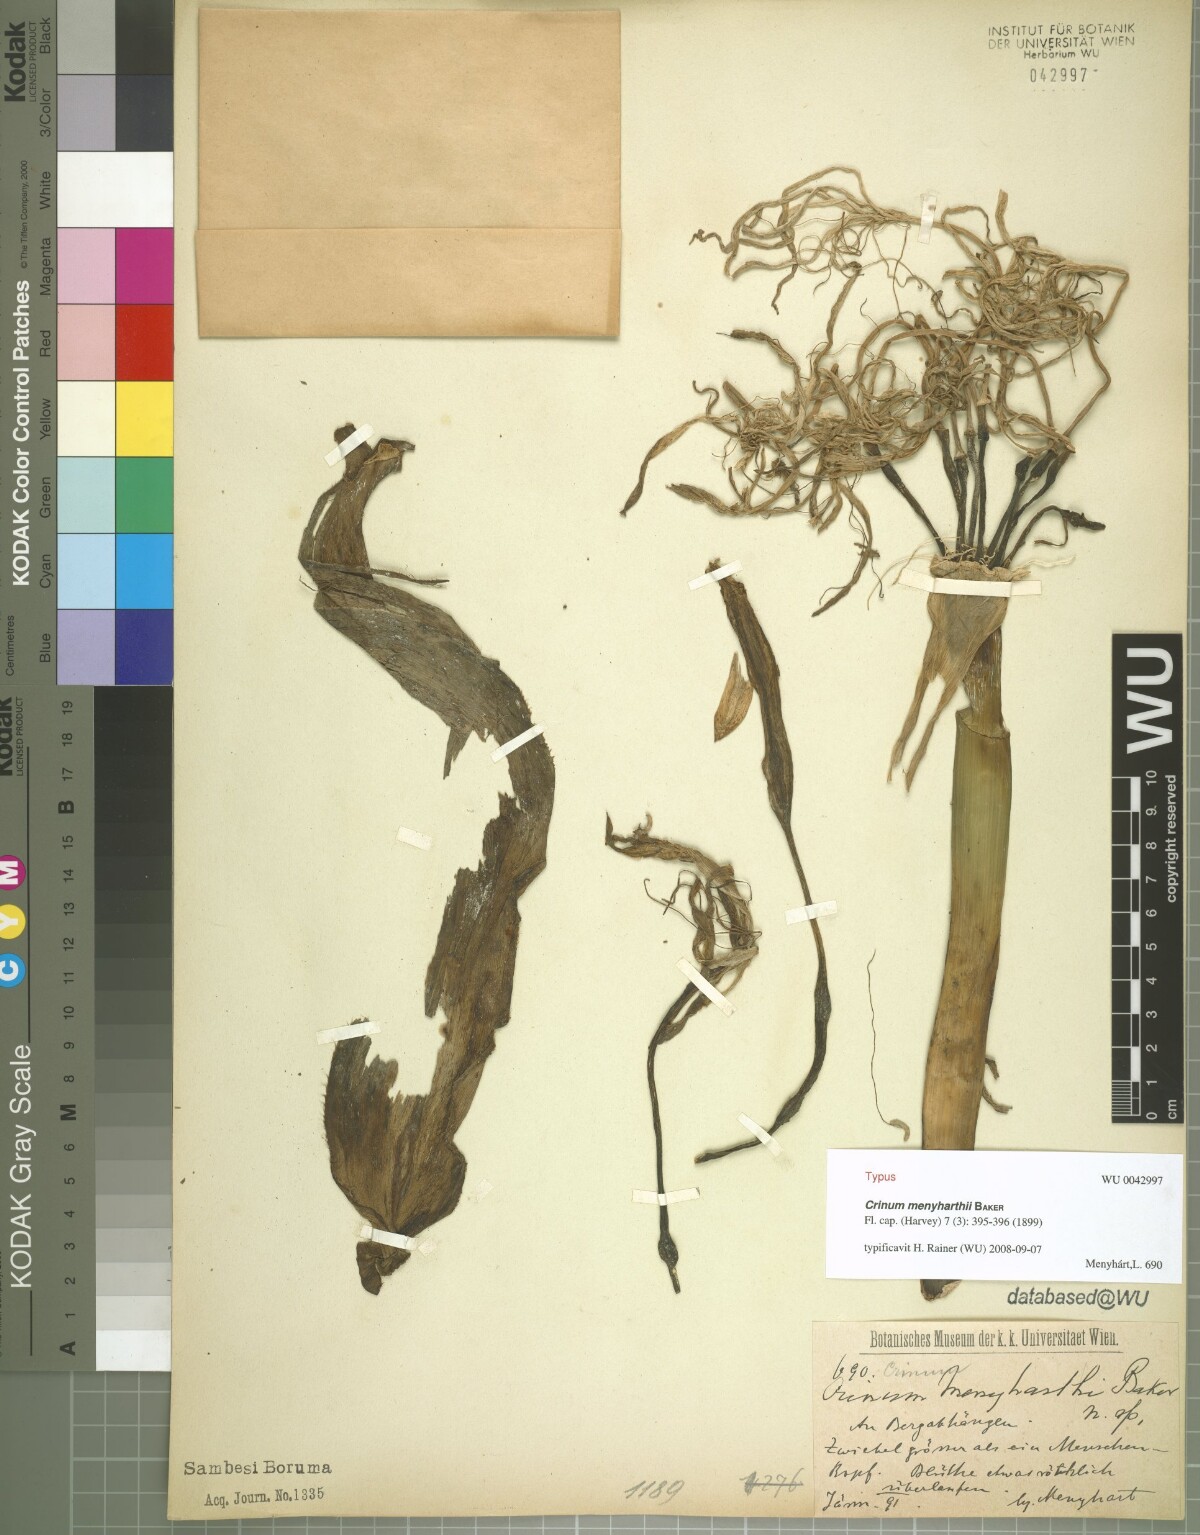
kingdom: Plantae
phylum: Tracheophyta
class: Liliopsida
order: Asparagales
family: Amaryllidaceae
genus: Crinum
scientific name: Crinum subcernuum
